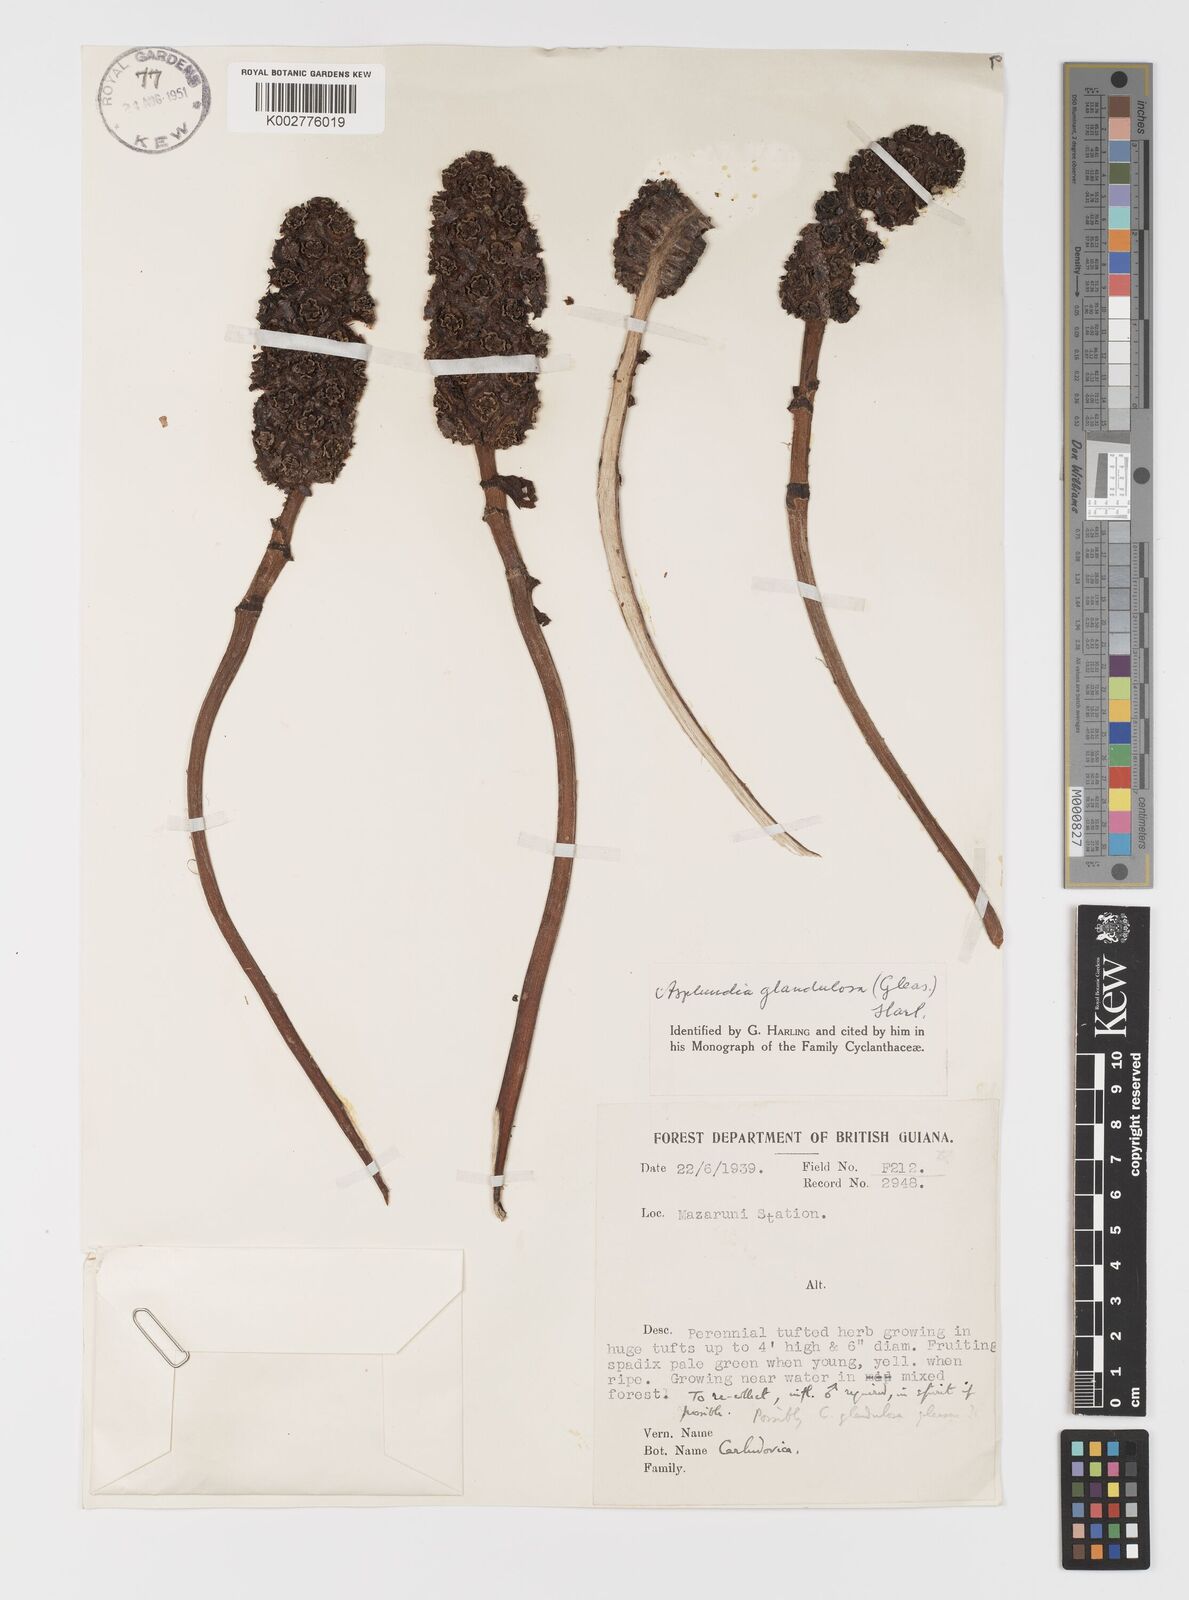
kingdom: Plantae
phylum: Tracheophyta
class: Liliopsida
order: Pandanales
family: Cyclanthaceae
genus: Asplundia
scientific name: Asplundia glandulosa
